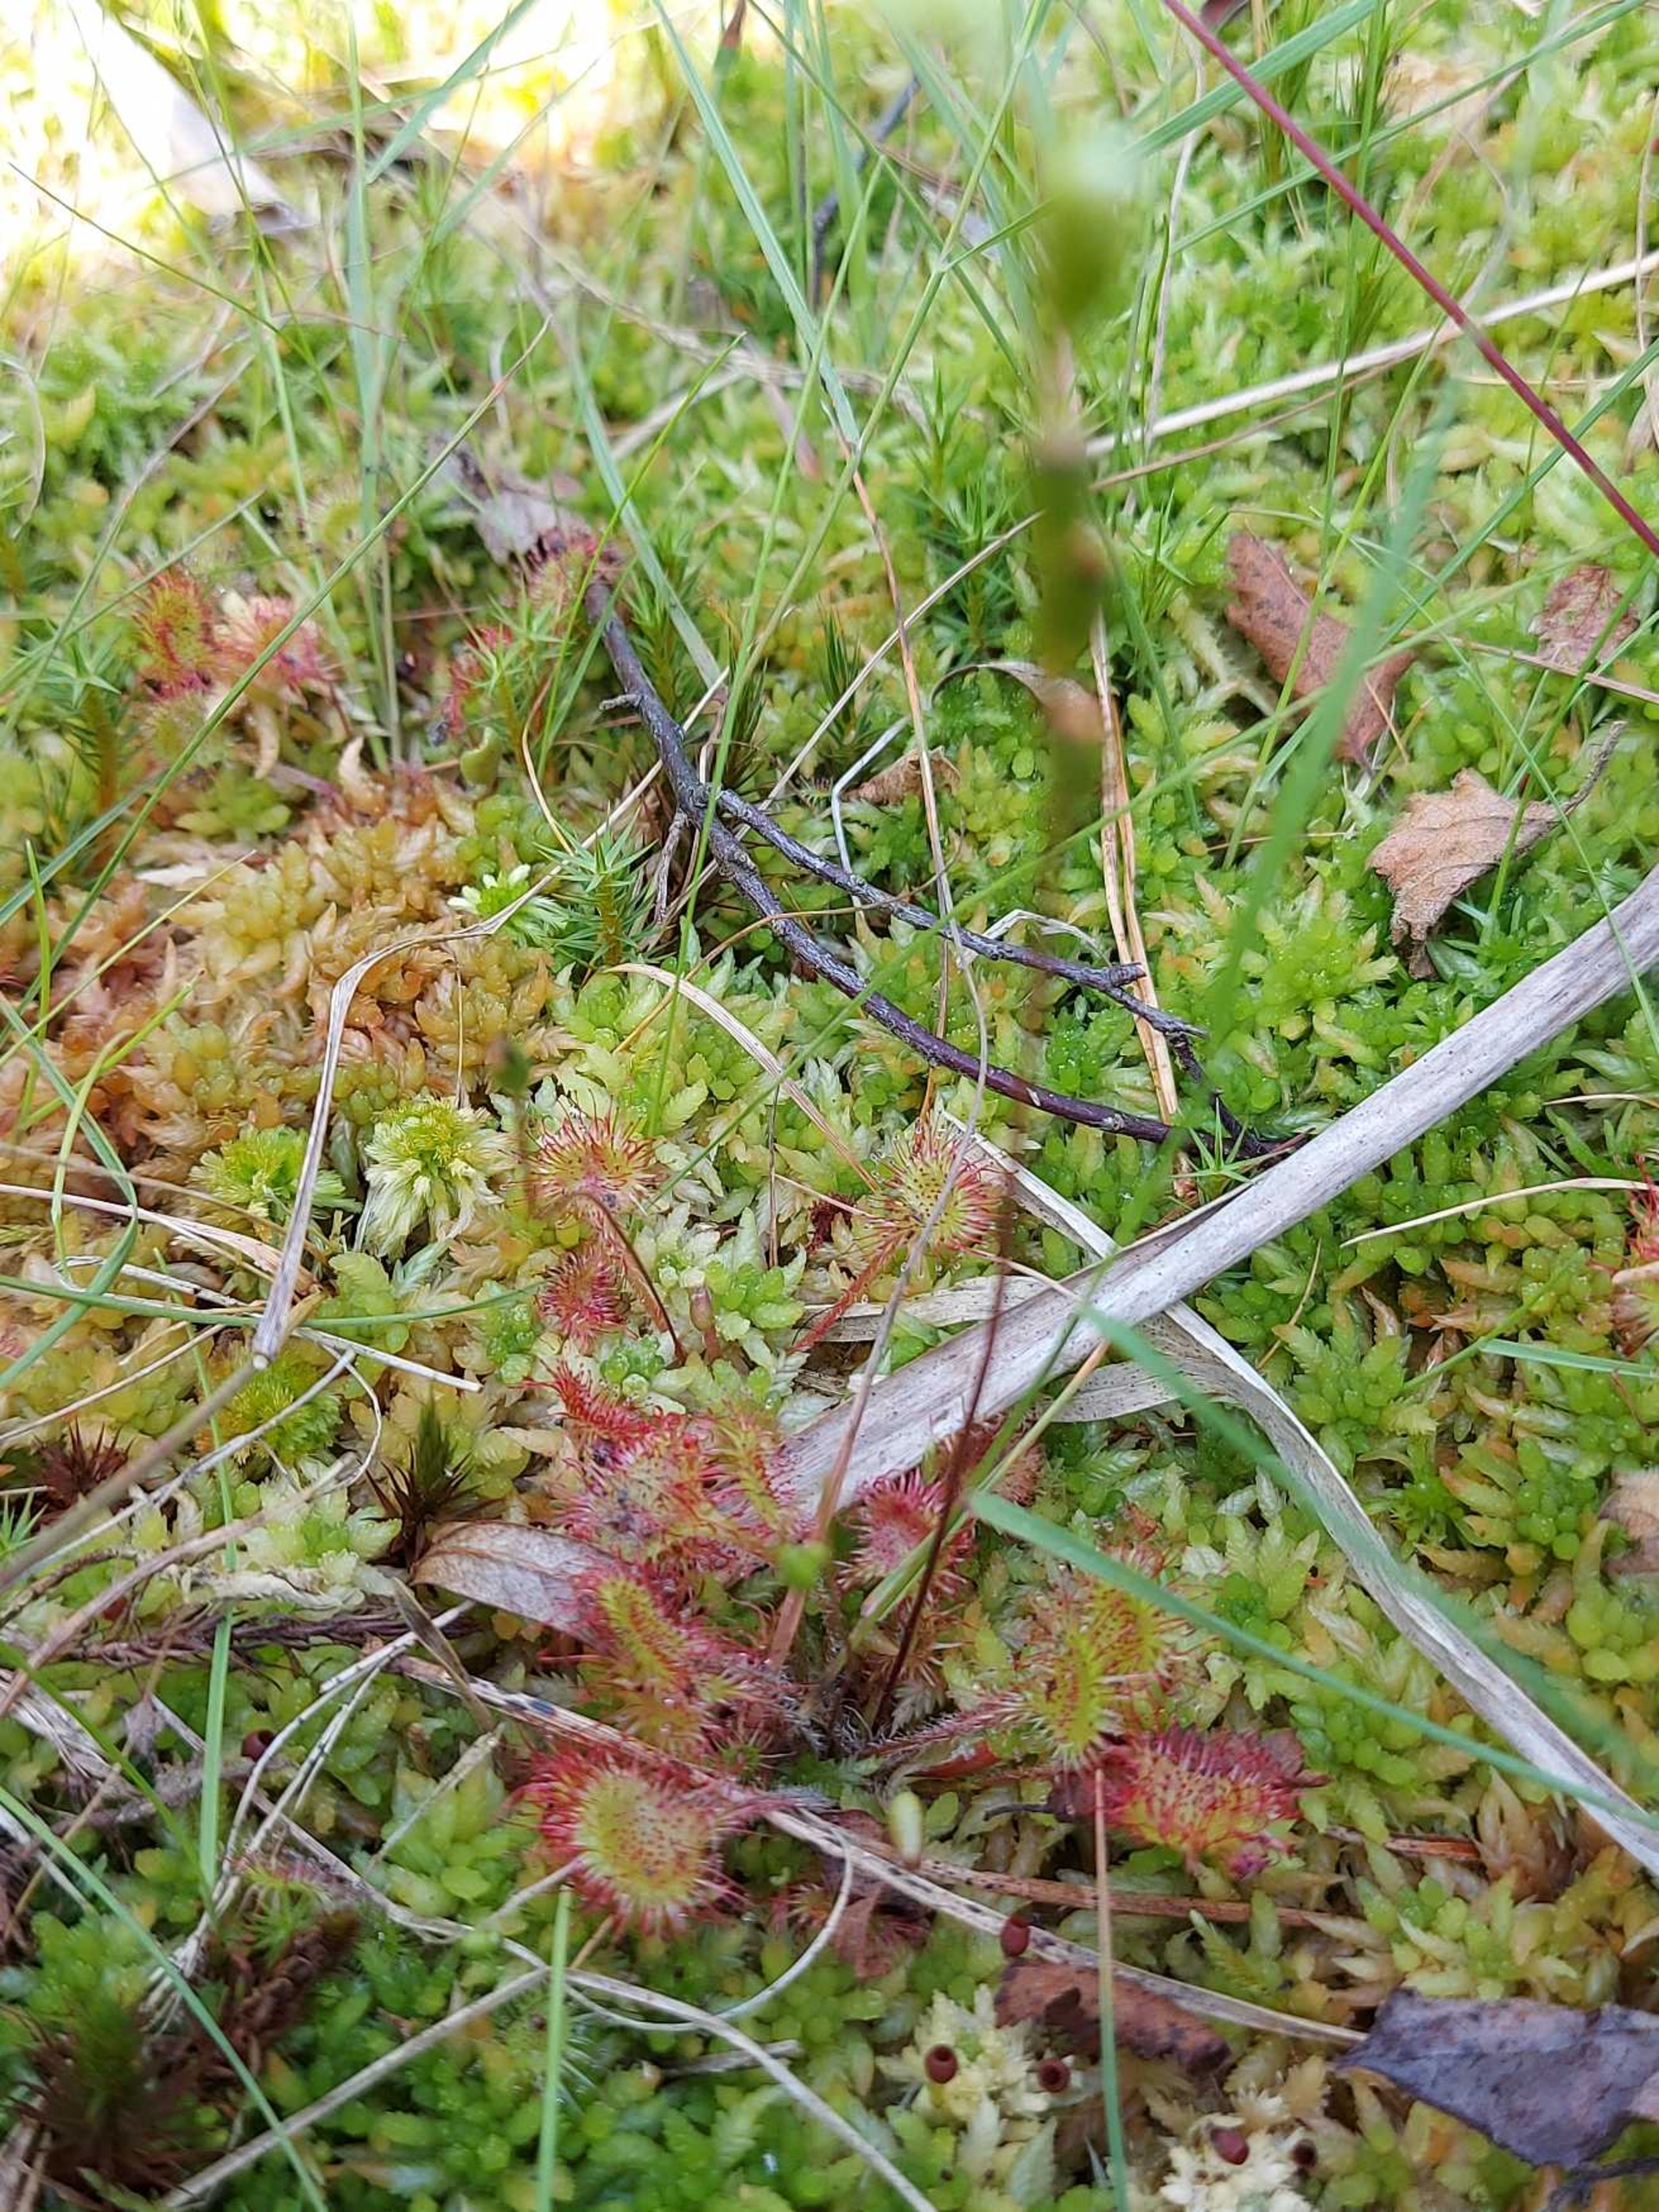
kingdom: Plantae
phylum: Tracheophyta
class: Magnoliopsida
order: Caryophyllales
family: Droseraceae
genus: Drosera
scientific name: Drosera rotundifolia
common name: Rundbladet soldug
